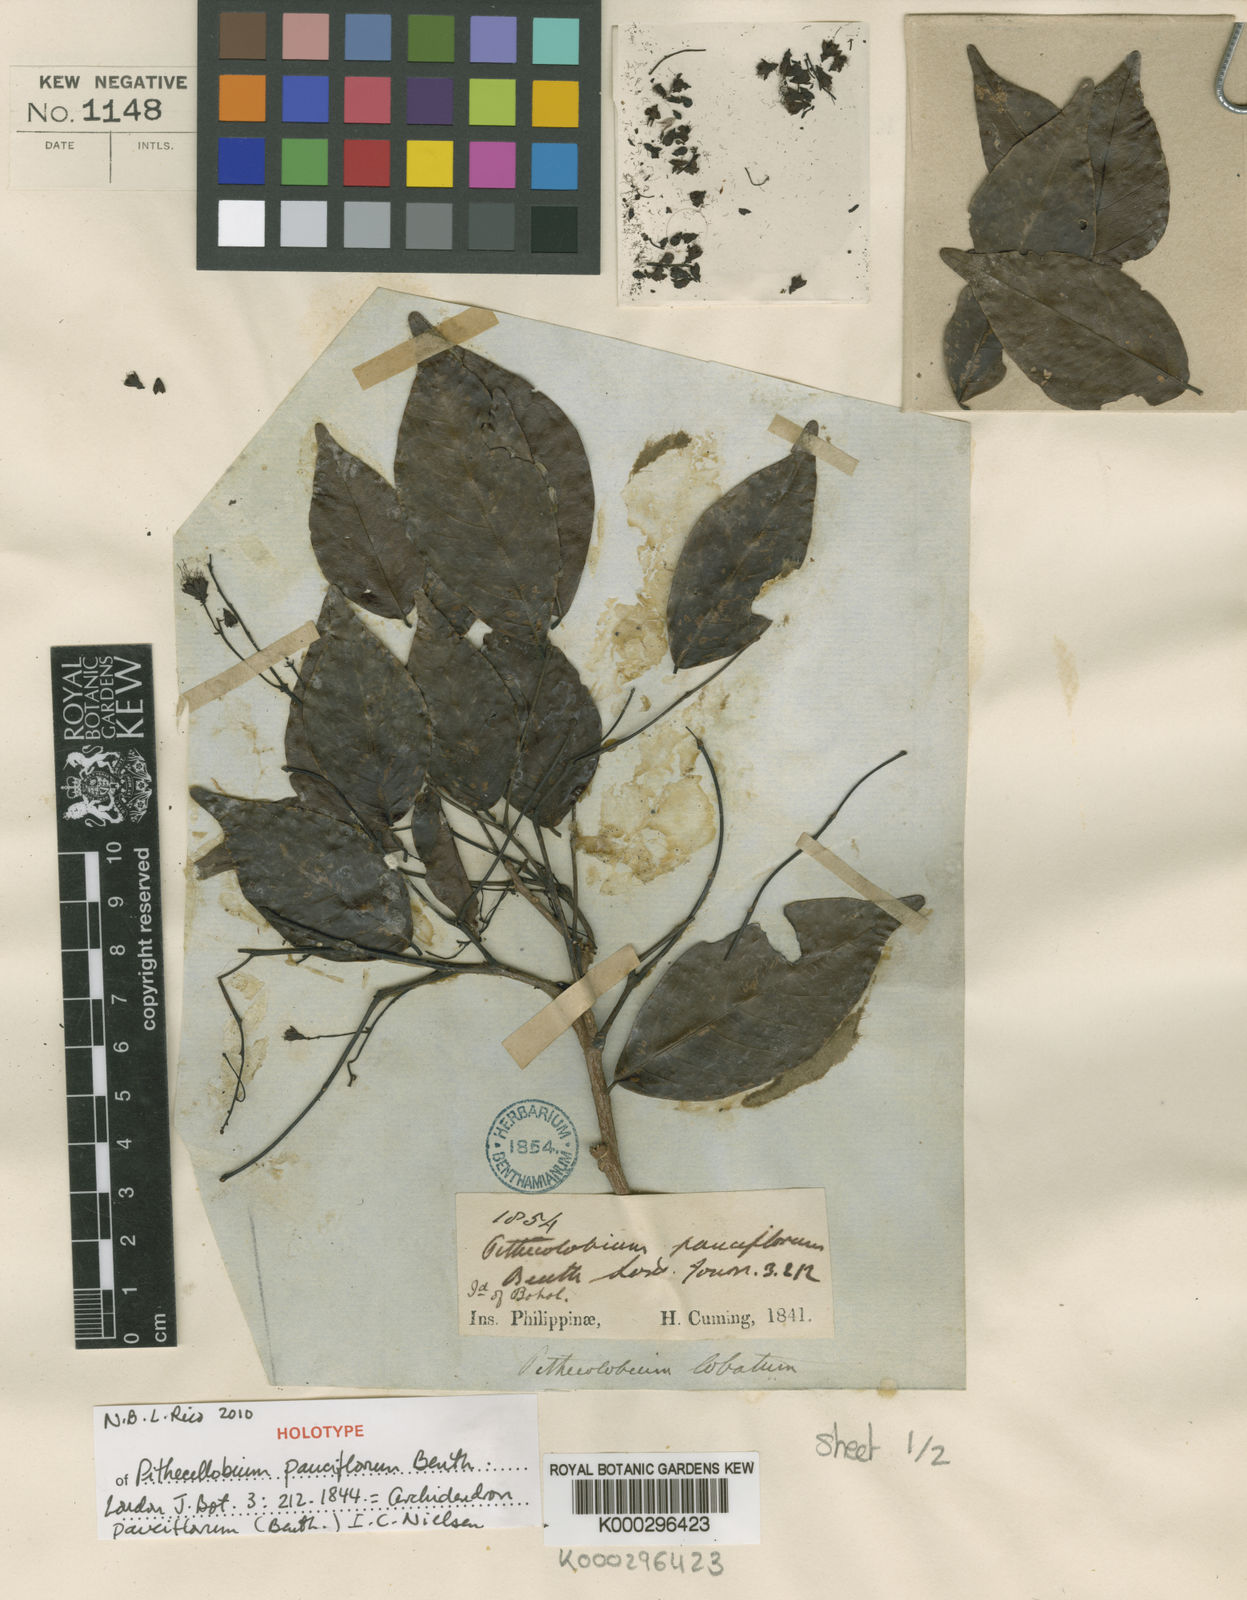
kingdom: Plantae
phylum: Tracheophyta
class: Magnoliopsida
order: Fabales
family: Fabaceae
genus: Archidendron
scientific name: Archidendron pauciflorum
